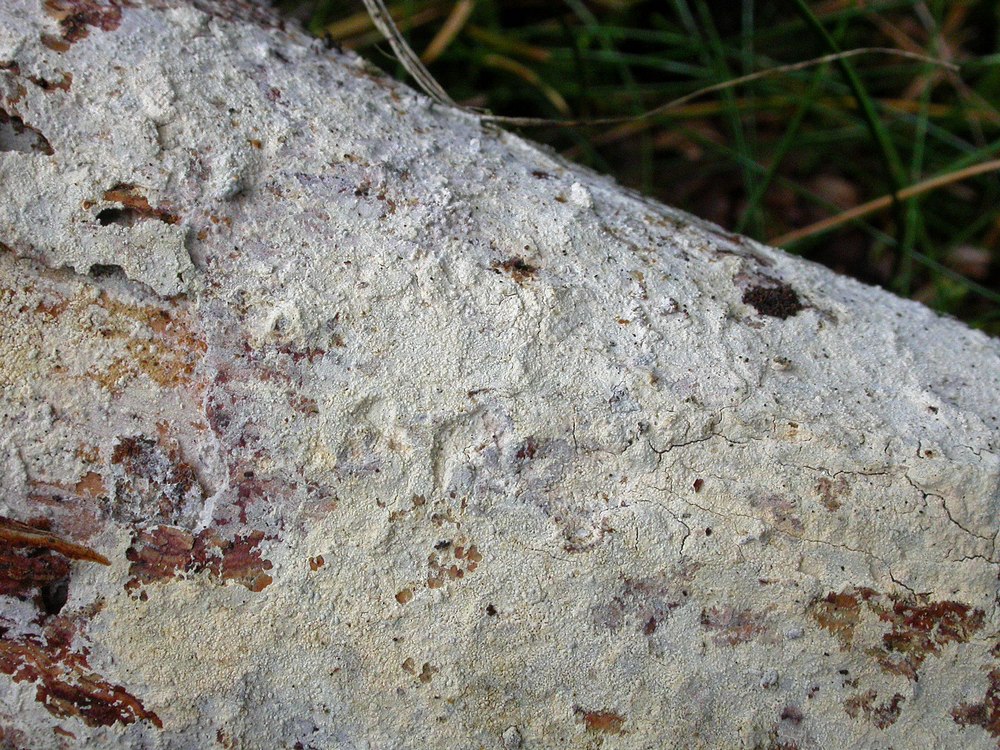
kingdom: Fungi
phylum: Basidiomycota
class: Agaricomycetes
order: Hymenochaetales
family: Hyphodontiaceae
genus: Hyphodontia
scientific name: Hyphodontia arguta
